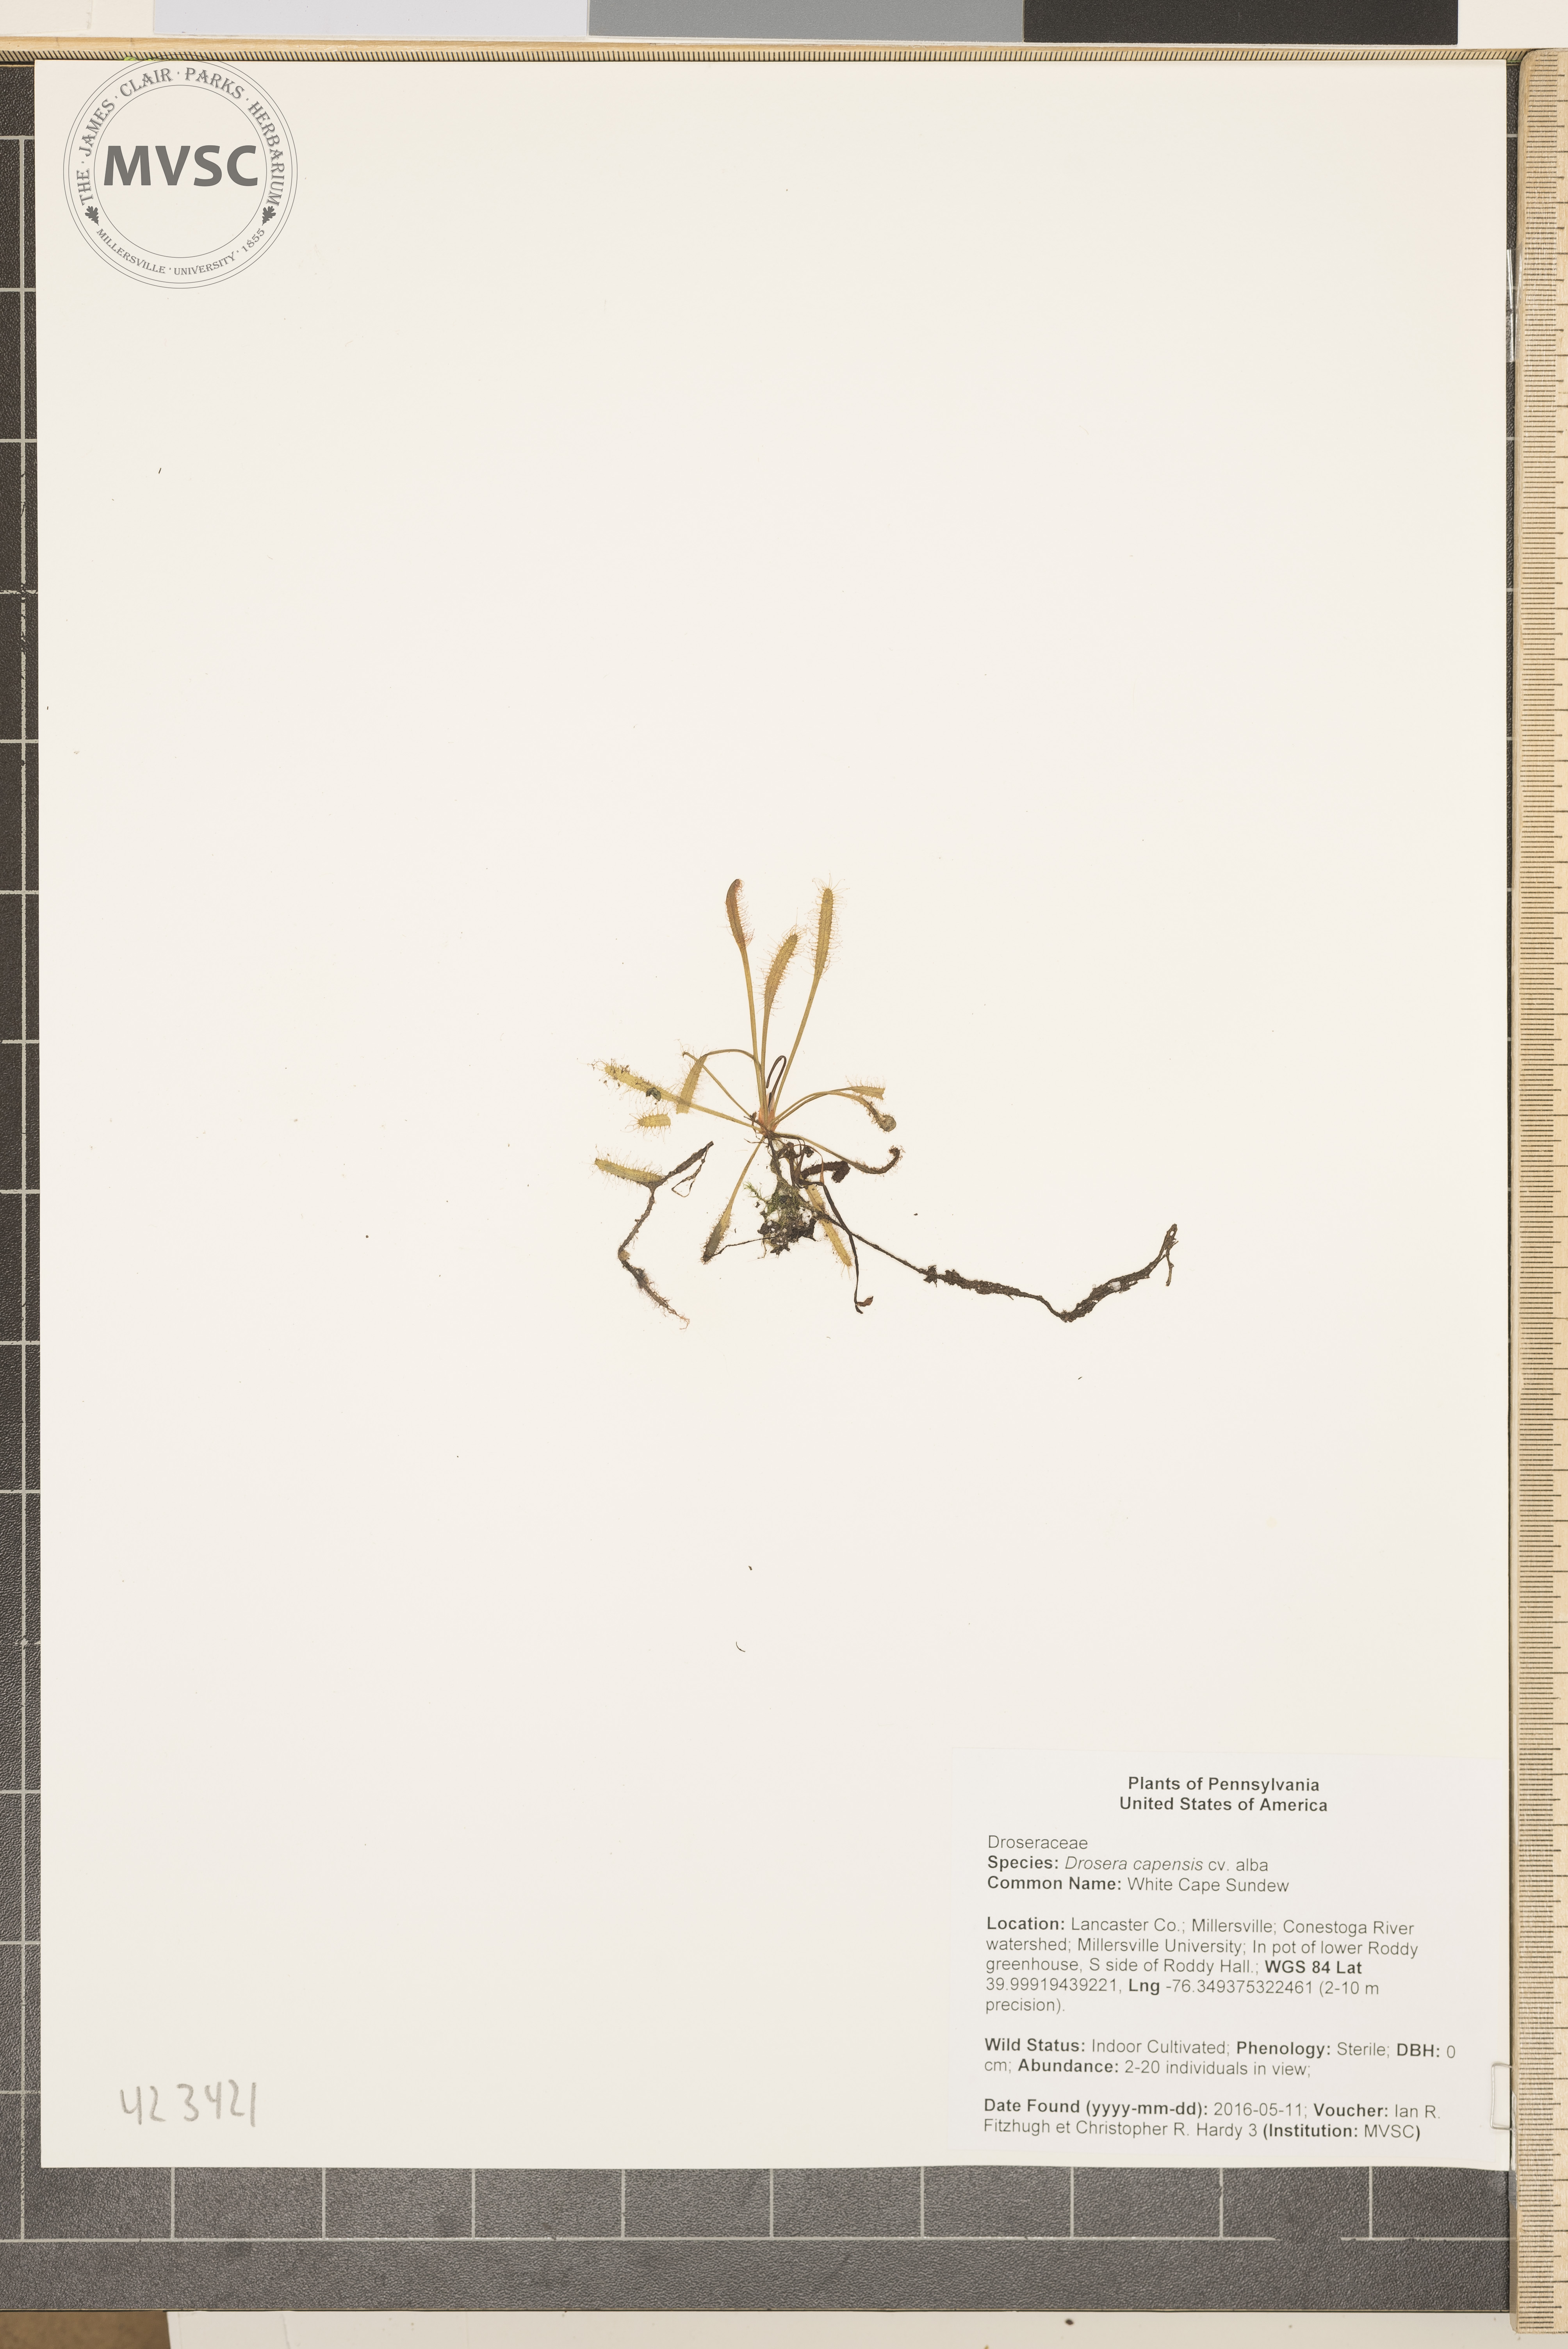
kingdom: Plantae
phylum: Tracheophyta
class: Magnoliopsida
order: Caryophyllales
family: Droseraceae
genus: Drosera
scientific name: Drosera capensis
